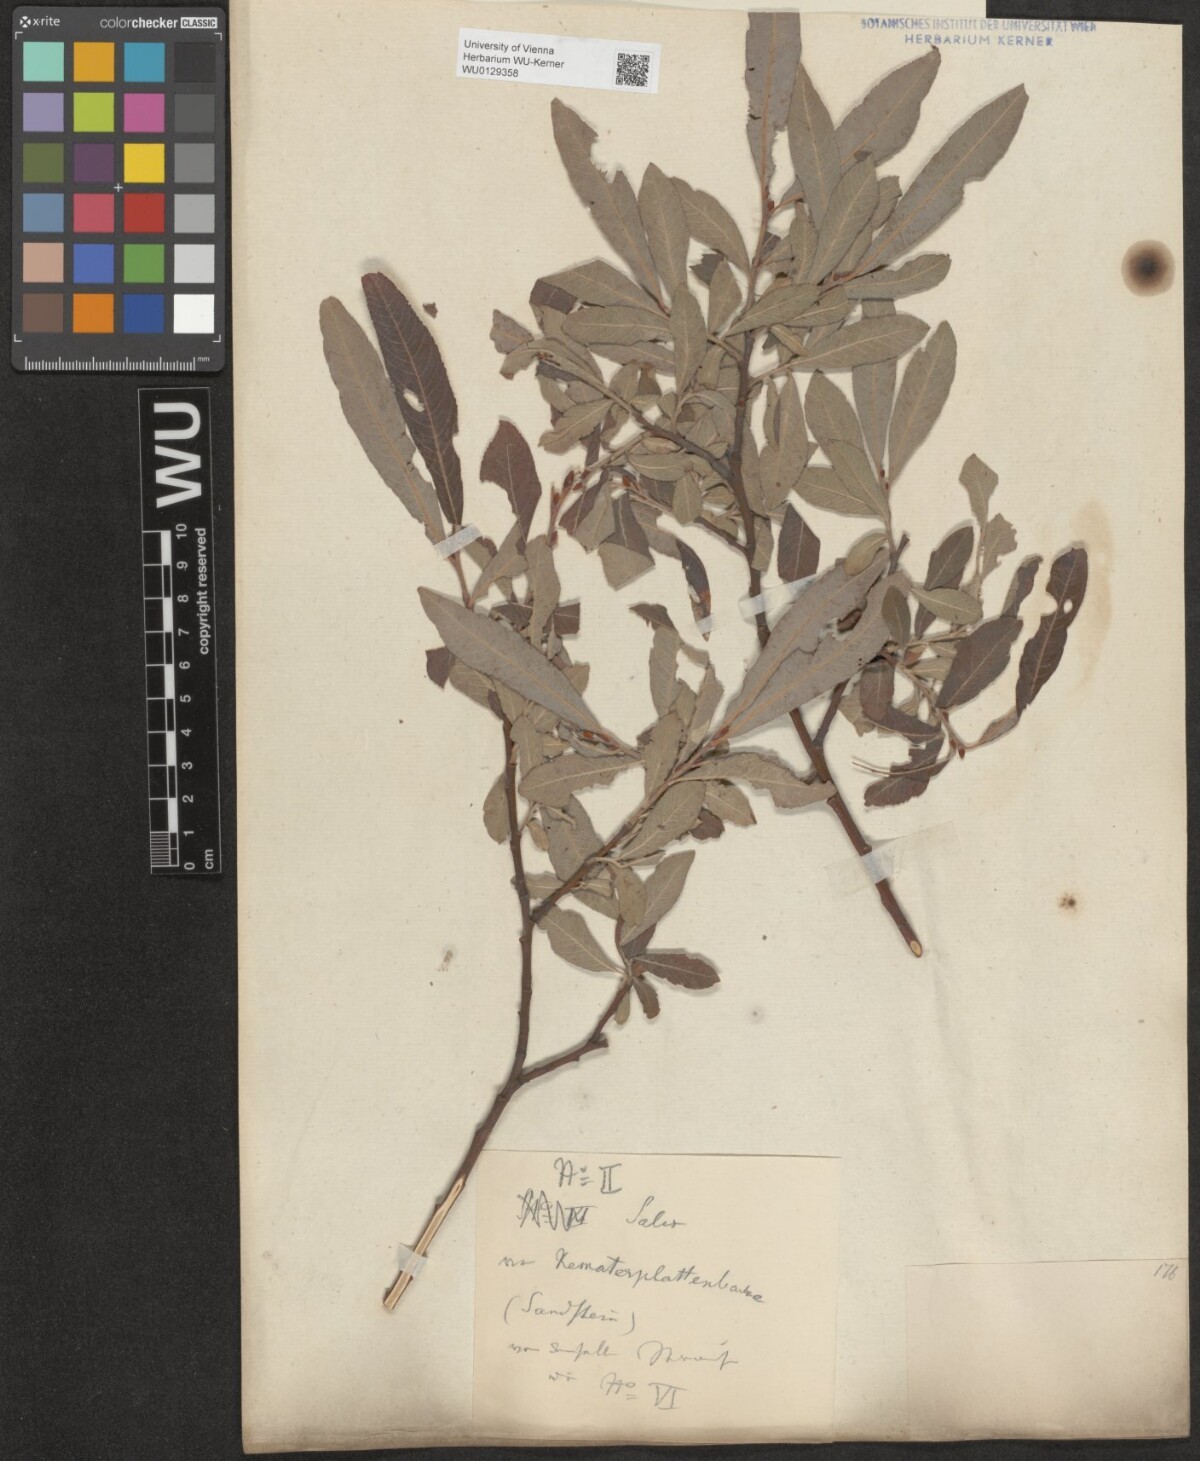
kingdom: Plantae
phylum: Tracheophyta
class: Magnoliopsida
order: Malpighiales
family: Salicaceae
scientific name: Salicaceae
